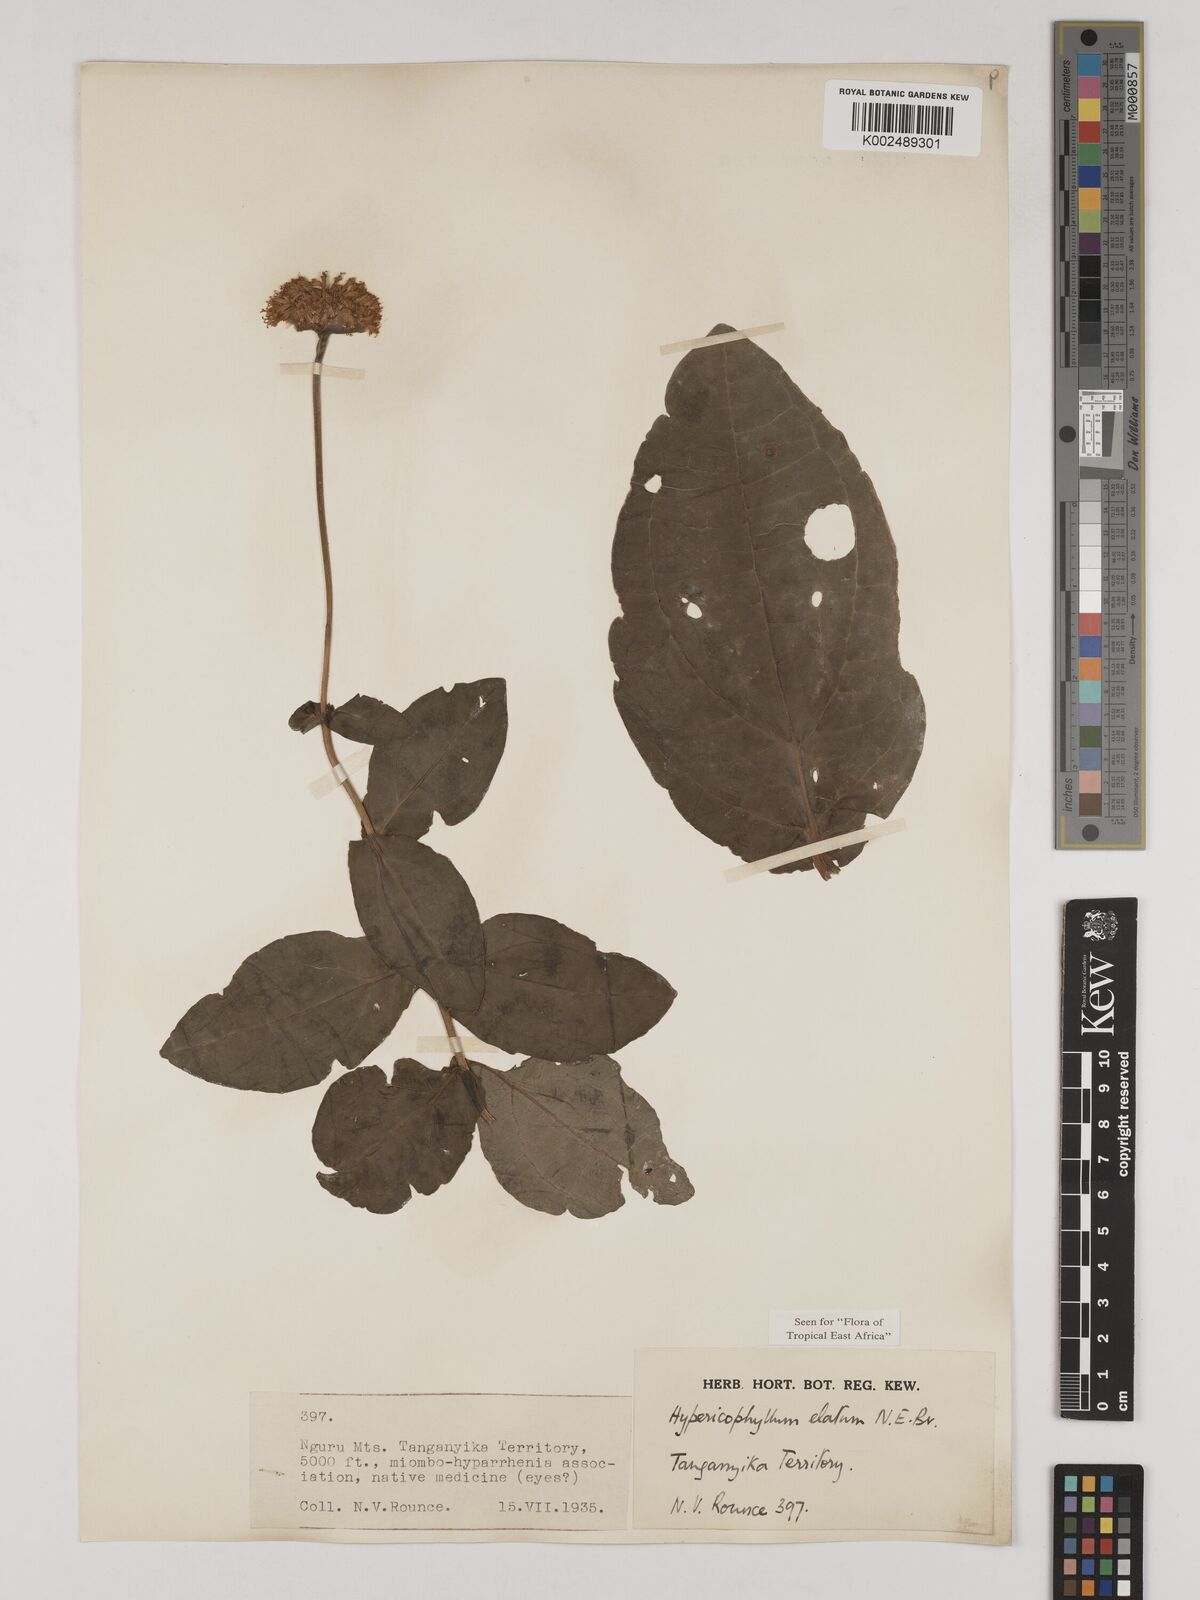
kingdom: Plantae
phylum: Tracheophyta
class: Magnoliopsida
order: Asterales
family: Asteraceae
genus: Hypericophyllum
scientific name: Hypericophyllum elatum
